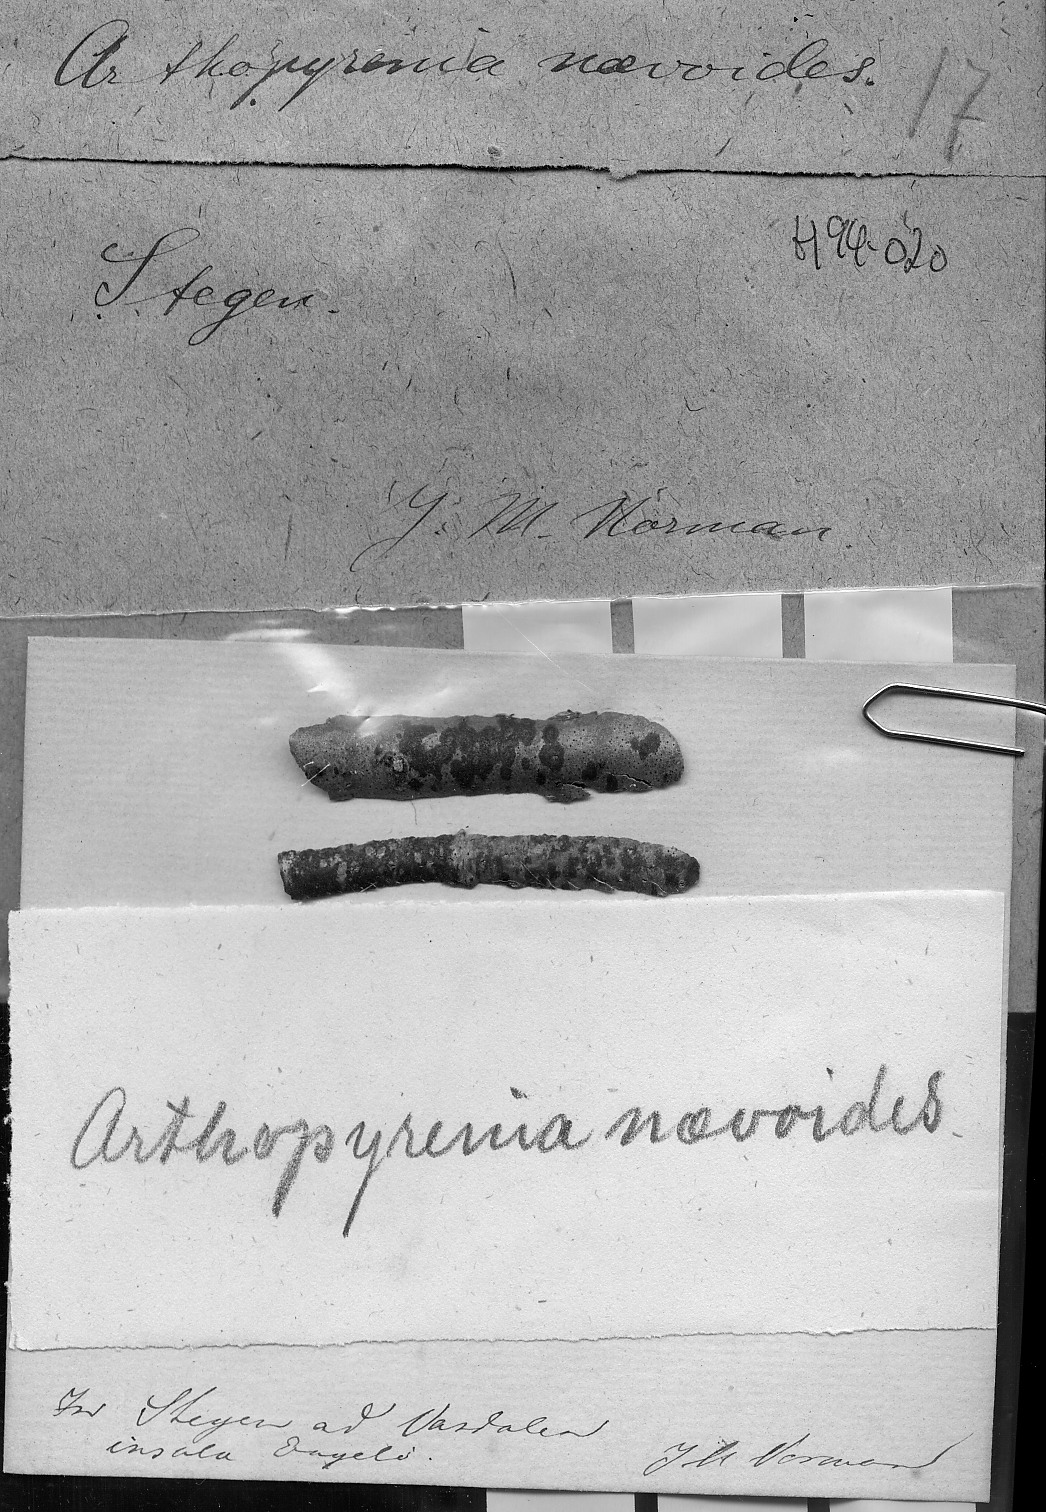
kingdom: Fungi
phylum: Ascomycota
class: Lecanoromycetes
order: Ostropales
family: Thelenellaceae
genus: Polyblastiopsis
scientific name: Polyblastiopsis naevoides
